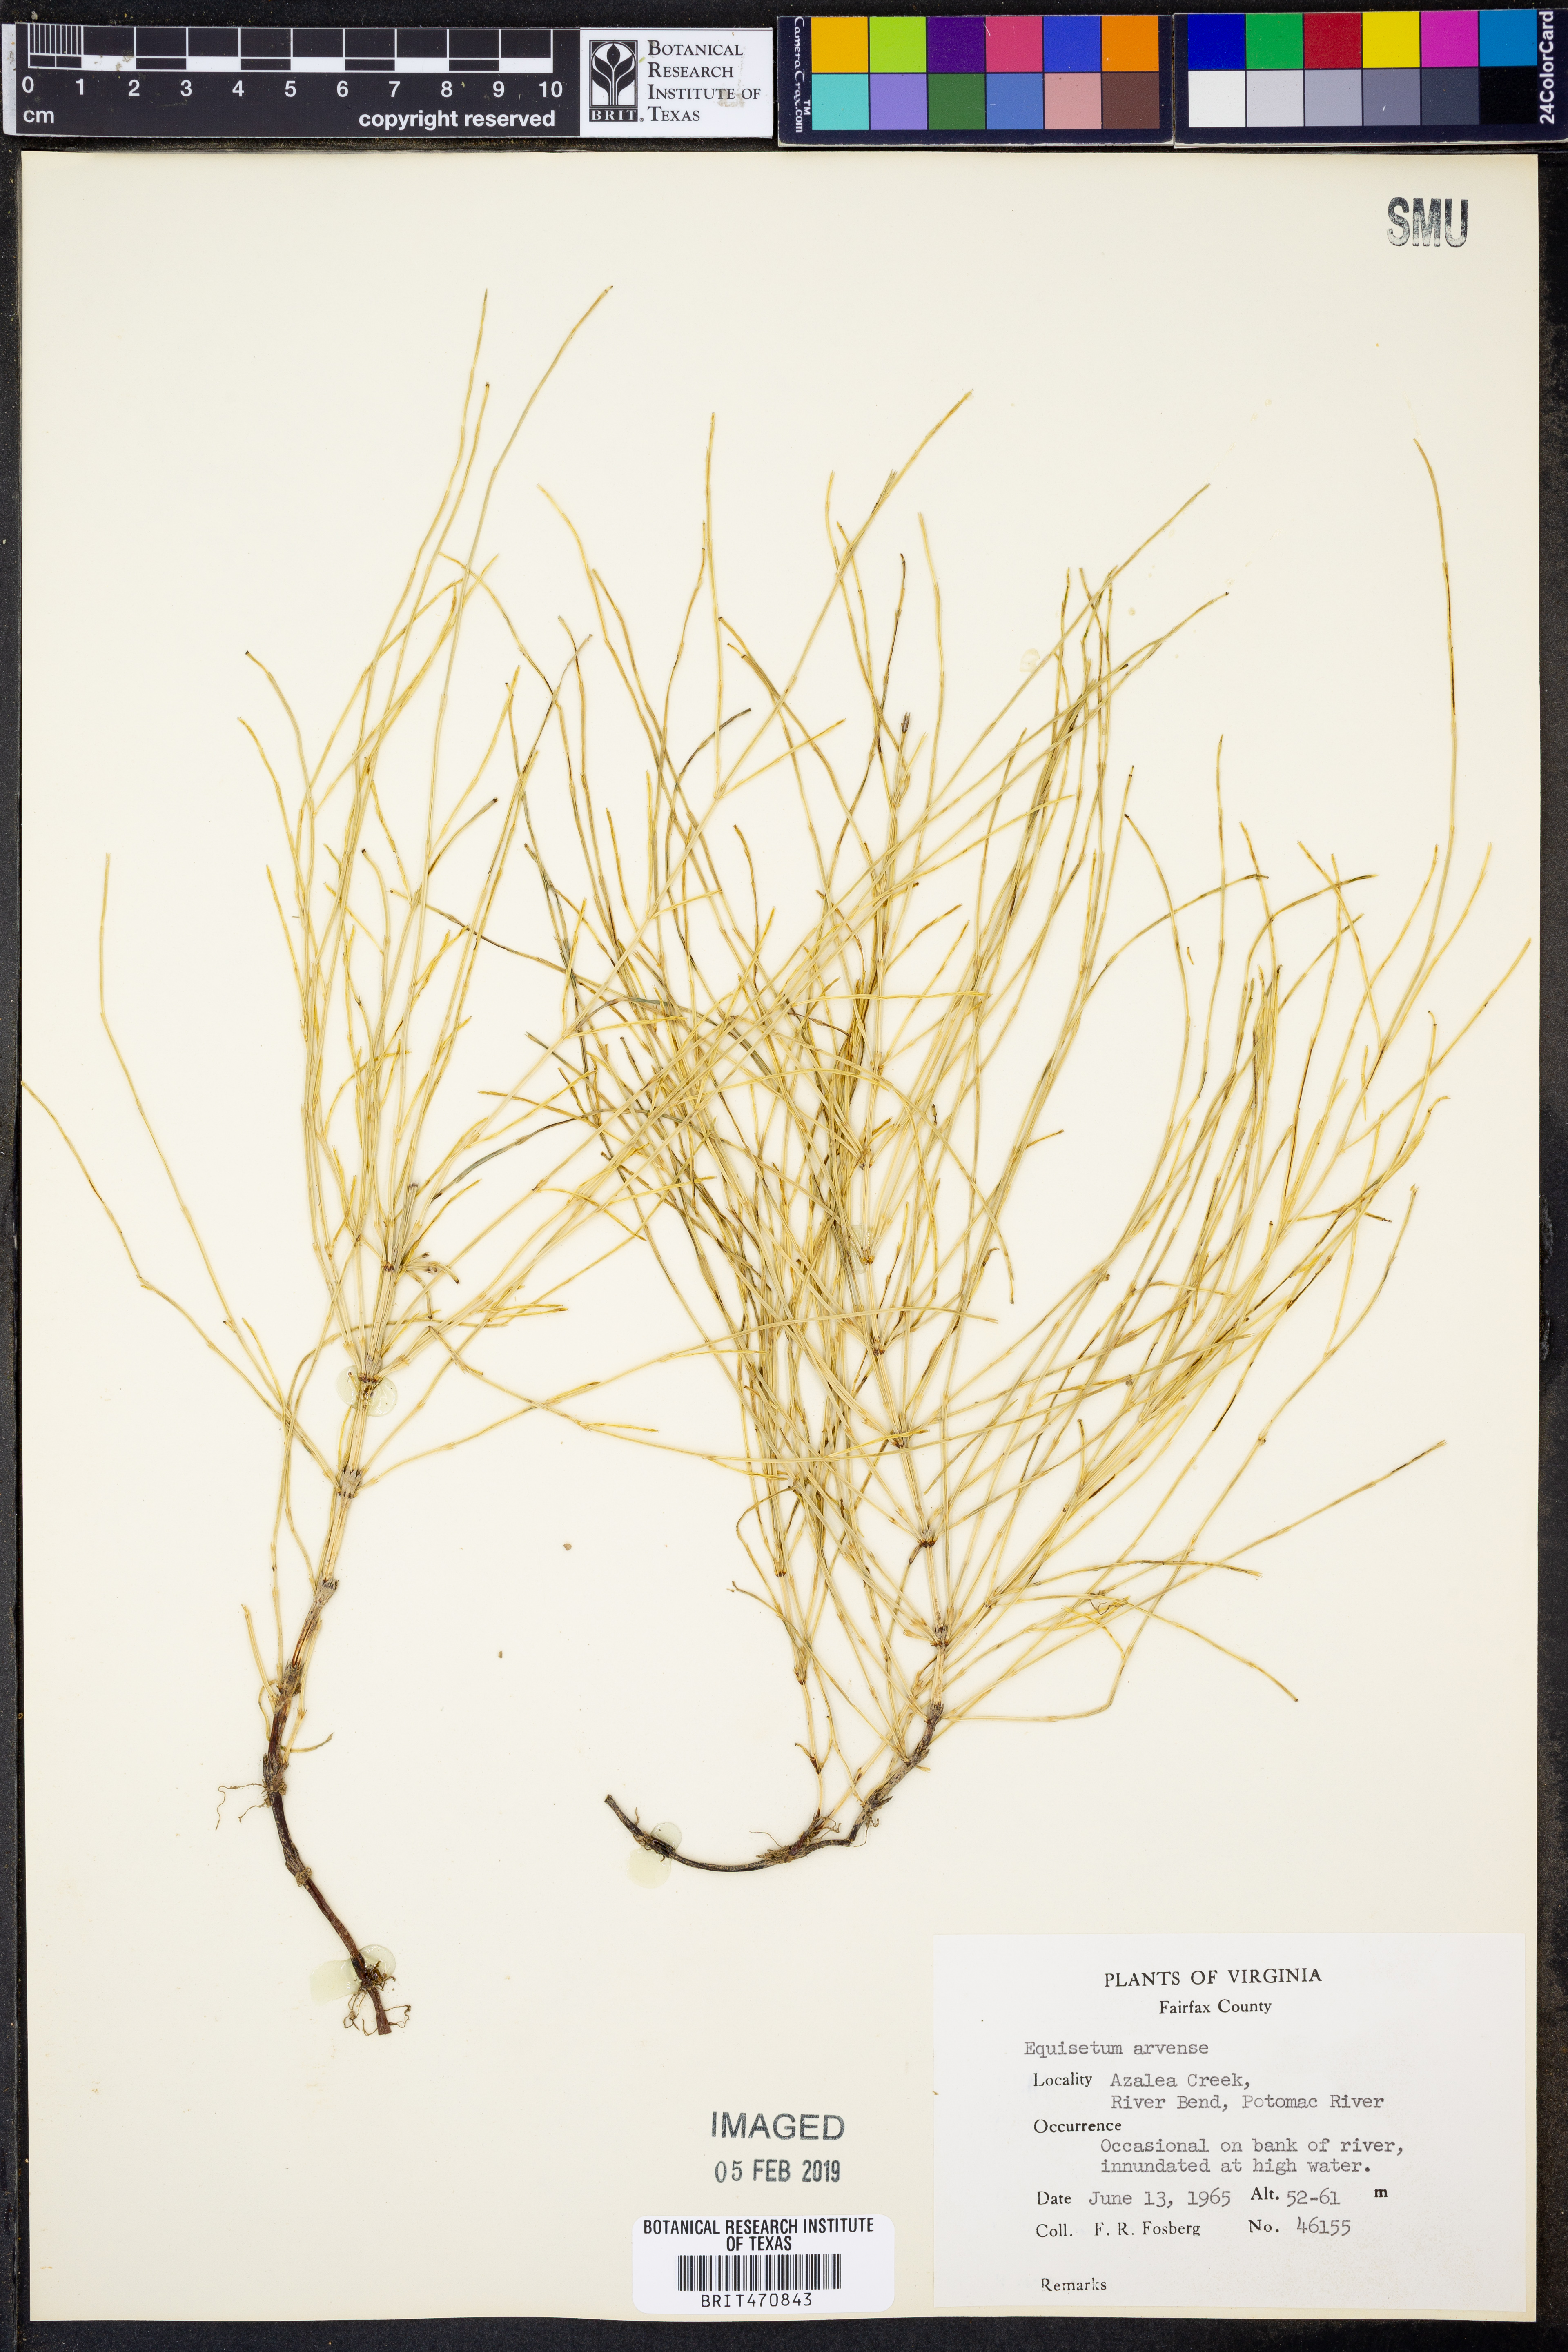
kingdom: Plantae
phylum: Tracheophyta
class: Polypodiopsida
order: Equisetales
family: Equisetaceae
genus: Equisetum
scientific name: Equisetum arvense
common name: Field horsetail
